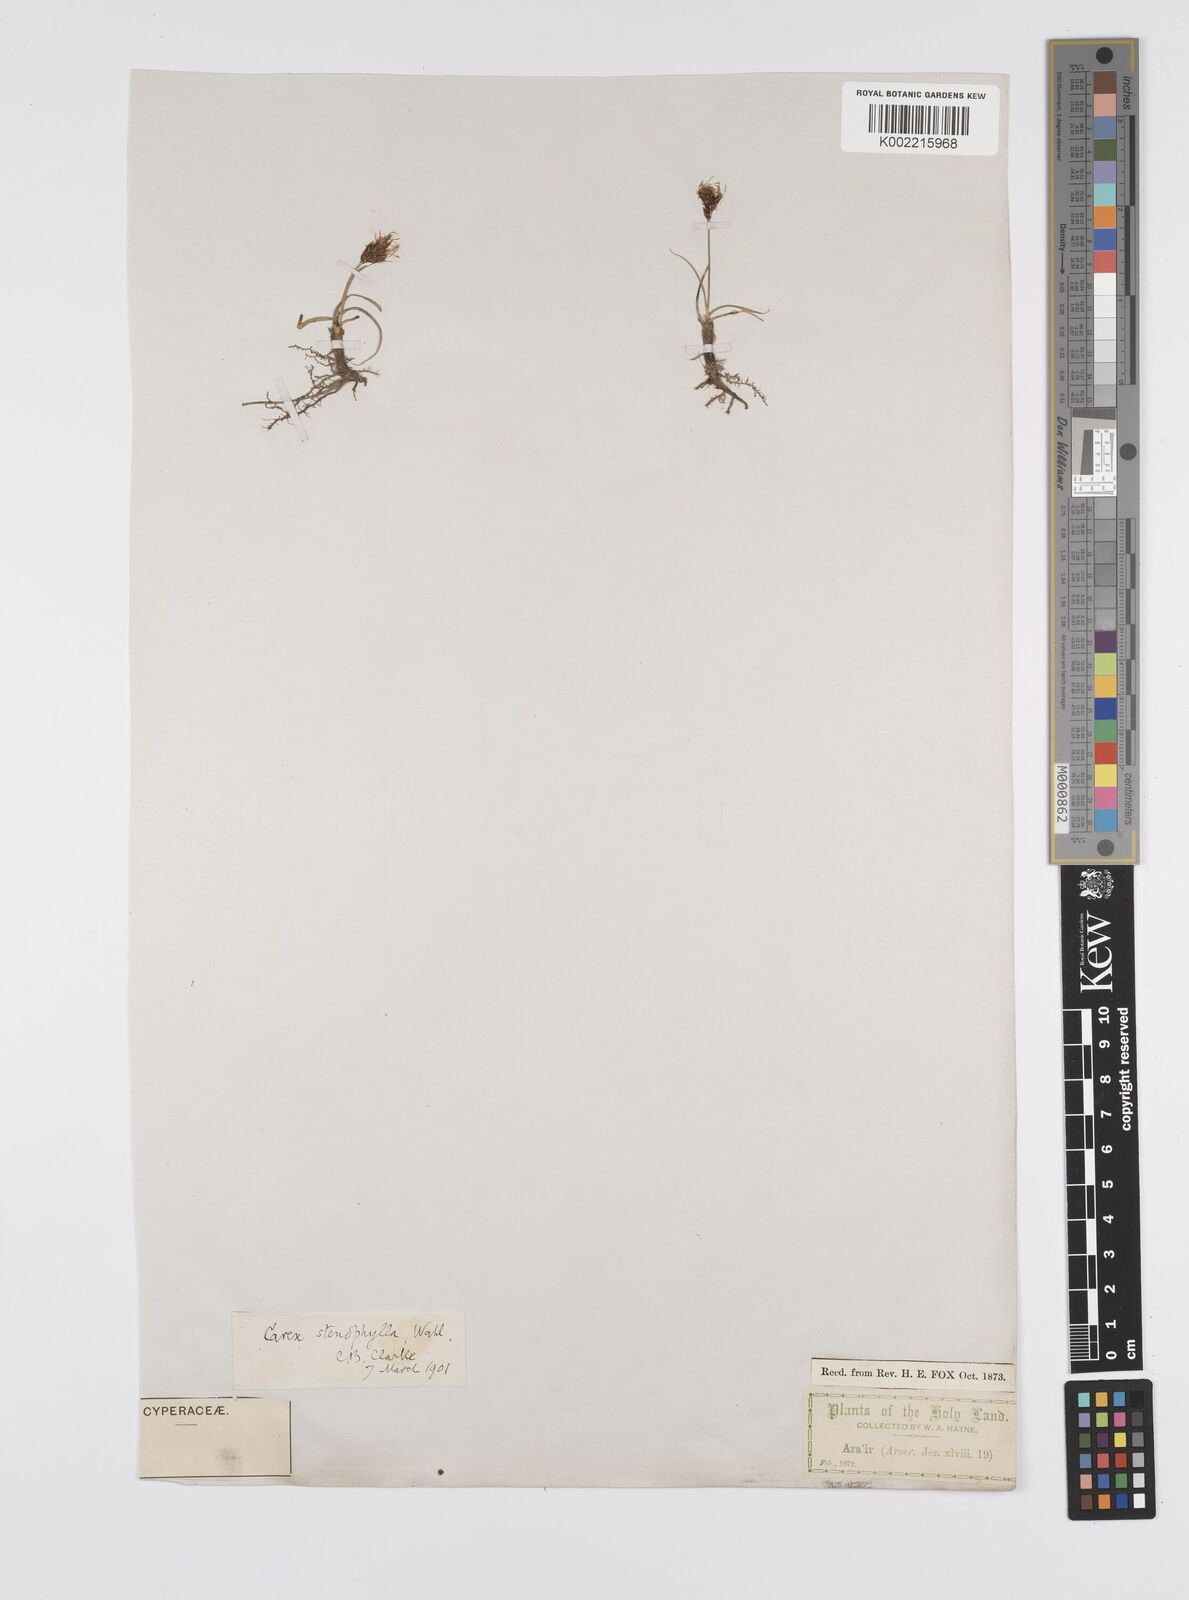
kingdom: Plantae
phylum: Tracheophyta
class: Liliopsida
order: Poales
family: Cyperaceae
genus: Carex
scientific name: Carex pachystylis
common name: Thick-stem sedge
